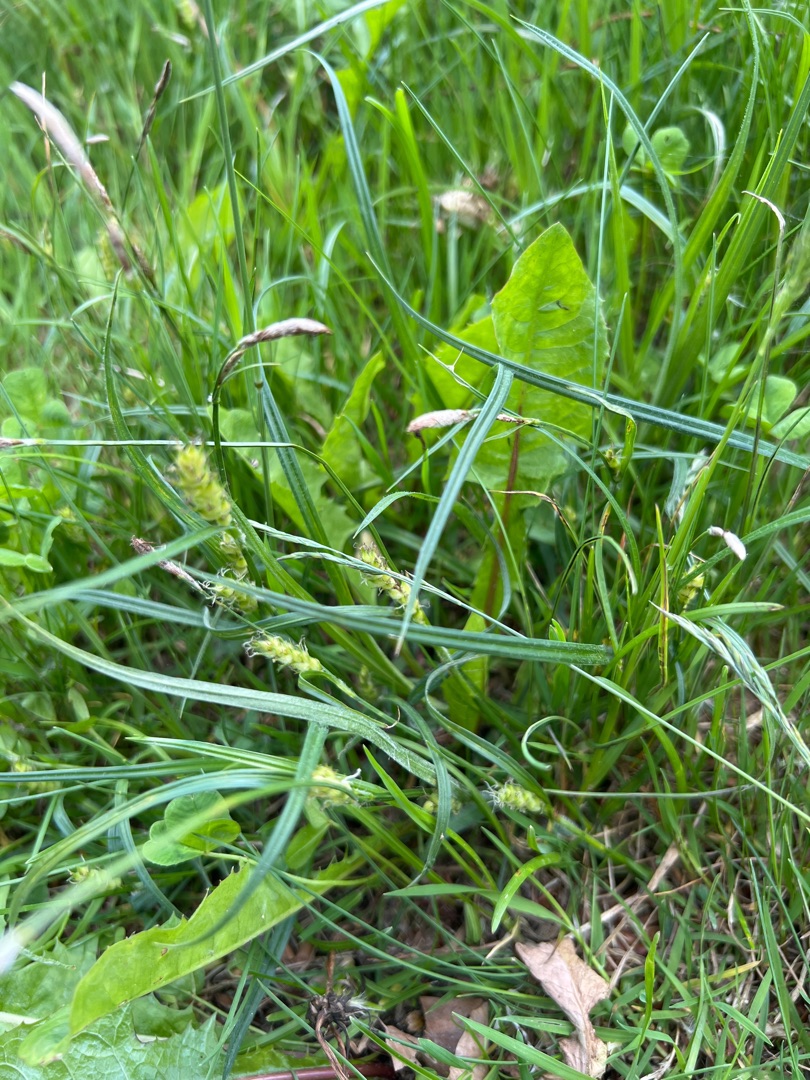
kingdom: Plantae
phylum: Tracheophyta
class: Liliopsida
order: Poales
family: Cyperaceae
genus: Carex
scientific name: Carex hirta
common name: Håret star
